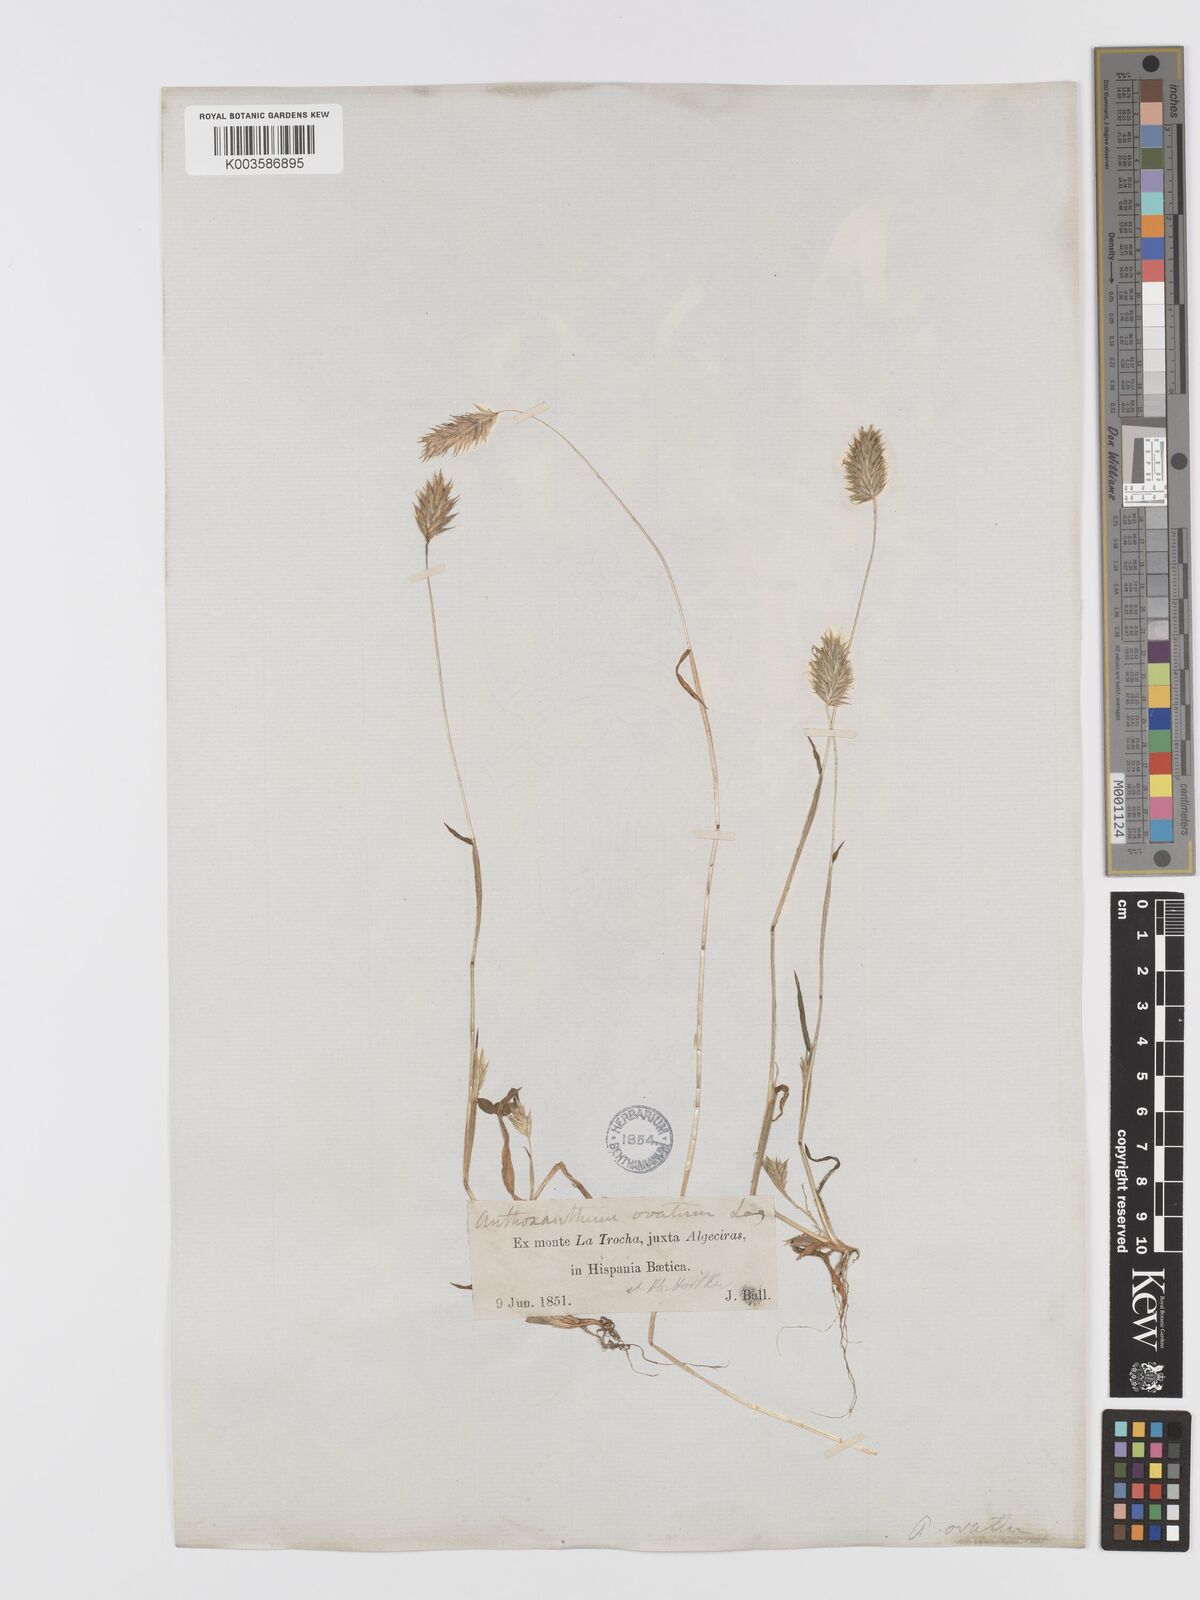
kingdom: Plantae
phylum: Tracheophyta
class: Liliopsida
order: Poales
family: Poaceae
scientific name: Poaceae
